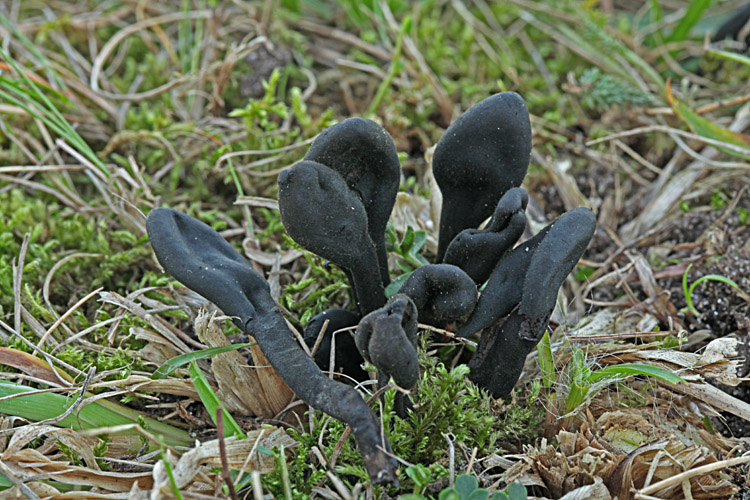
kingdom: Fungi
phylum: Ascomycota
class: Geoglossomycetes
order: Geoglossales
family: Geoglossaceae
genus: Trichoglossum
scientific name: Trichoglossum hirsutum
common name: håret jordtunge
